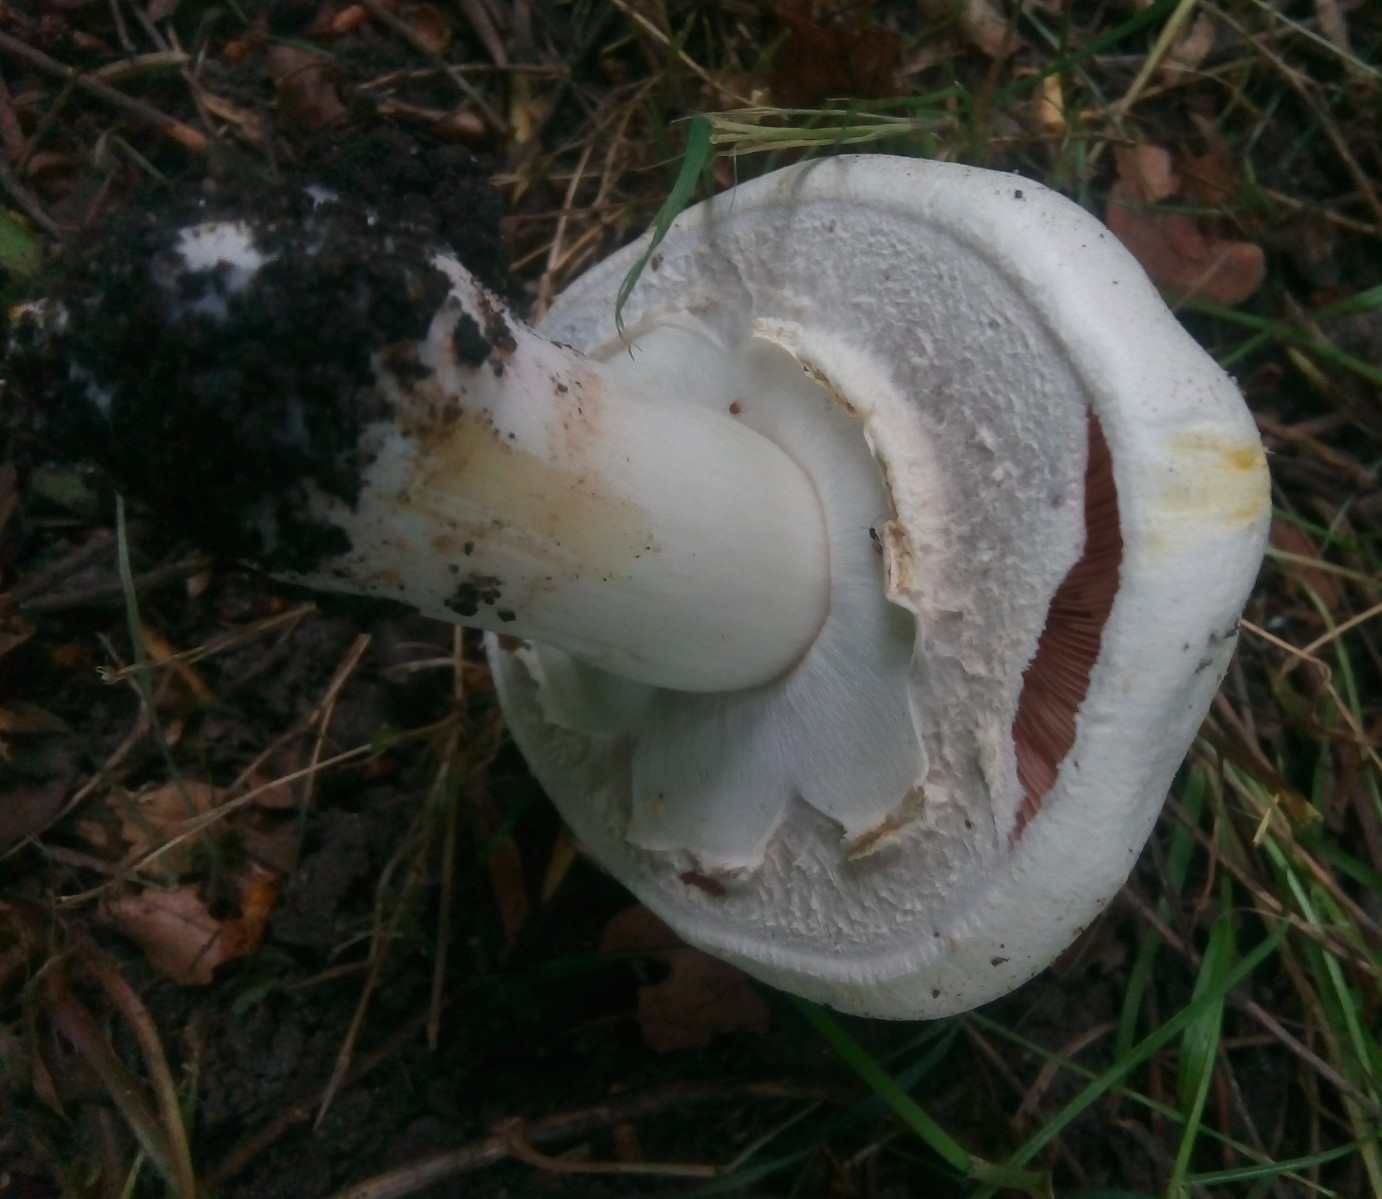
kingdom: Fungi
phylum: Basidiomycota
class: Agaricomycetes
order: Agaricales
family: Agaricaceae
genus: Agaricus
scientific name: Agaricus xanthodermus
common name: karbol-champignon
